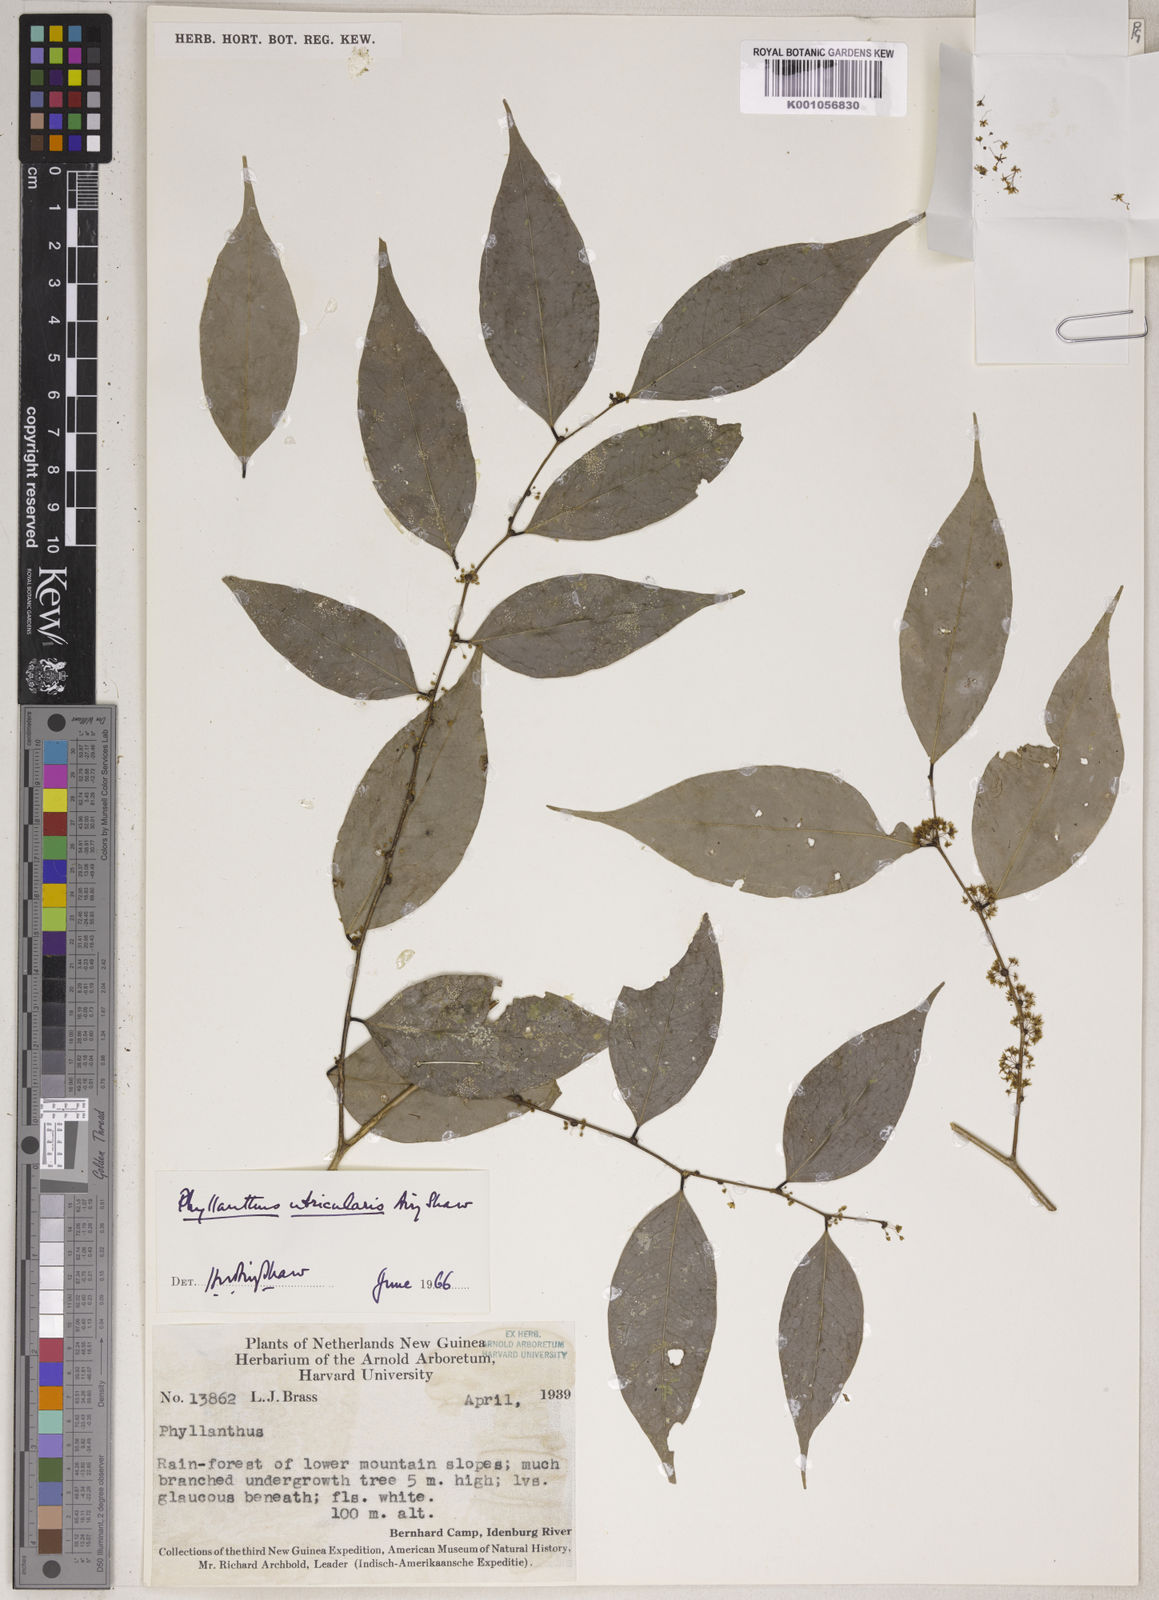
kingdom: Plantae
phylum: Tracheophyta
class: Magnoliopsida
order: Malpighiales
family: Phyllanthaceae
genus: Phyllanthus
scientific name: Phyllanthus utricularis
